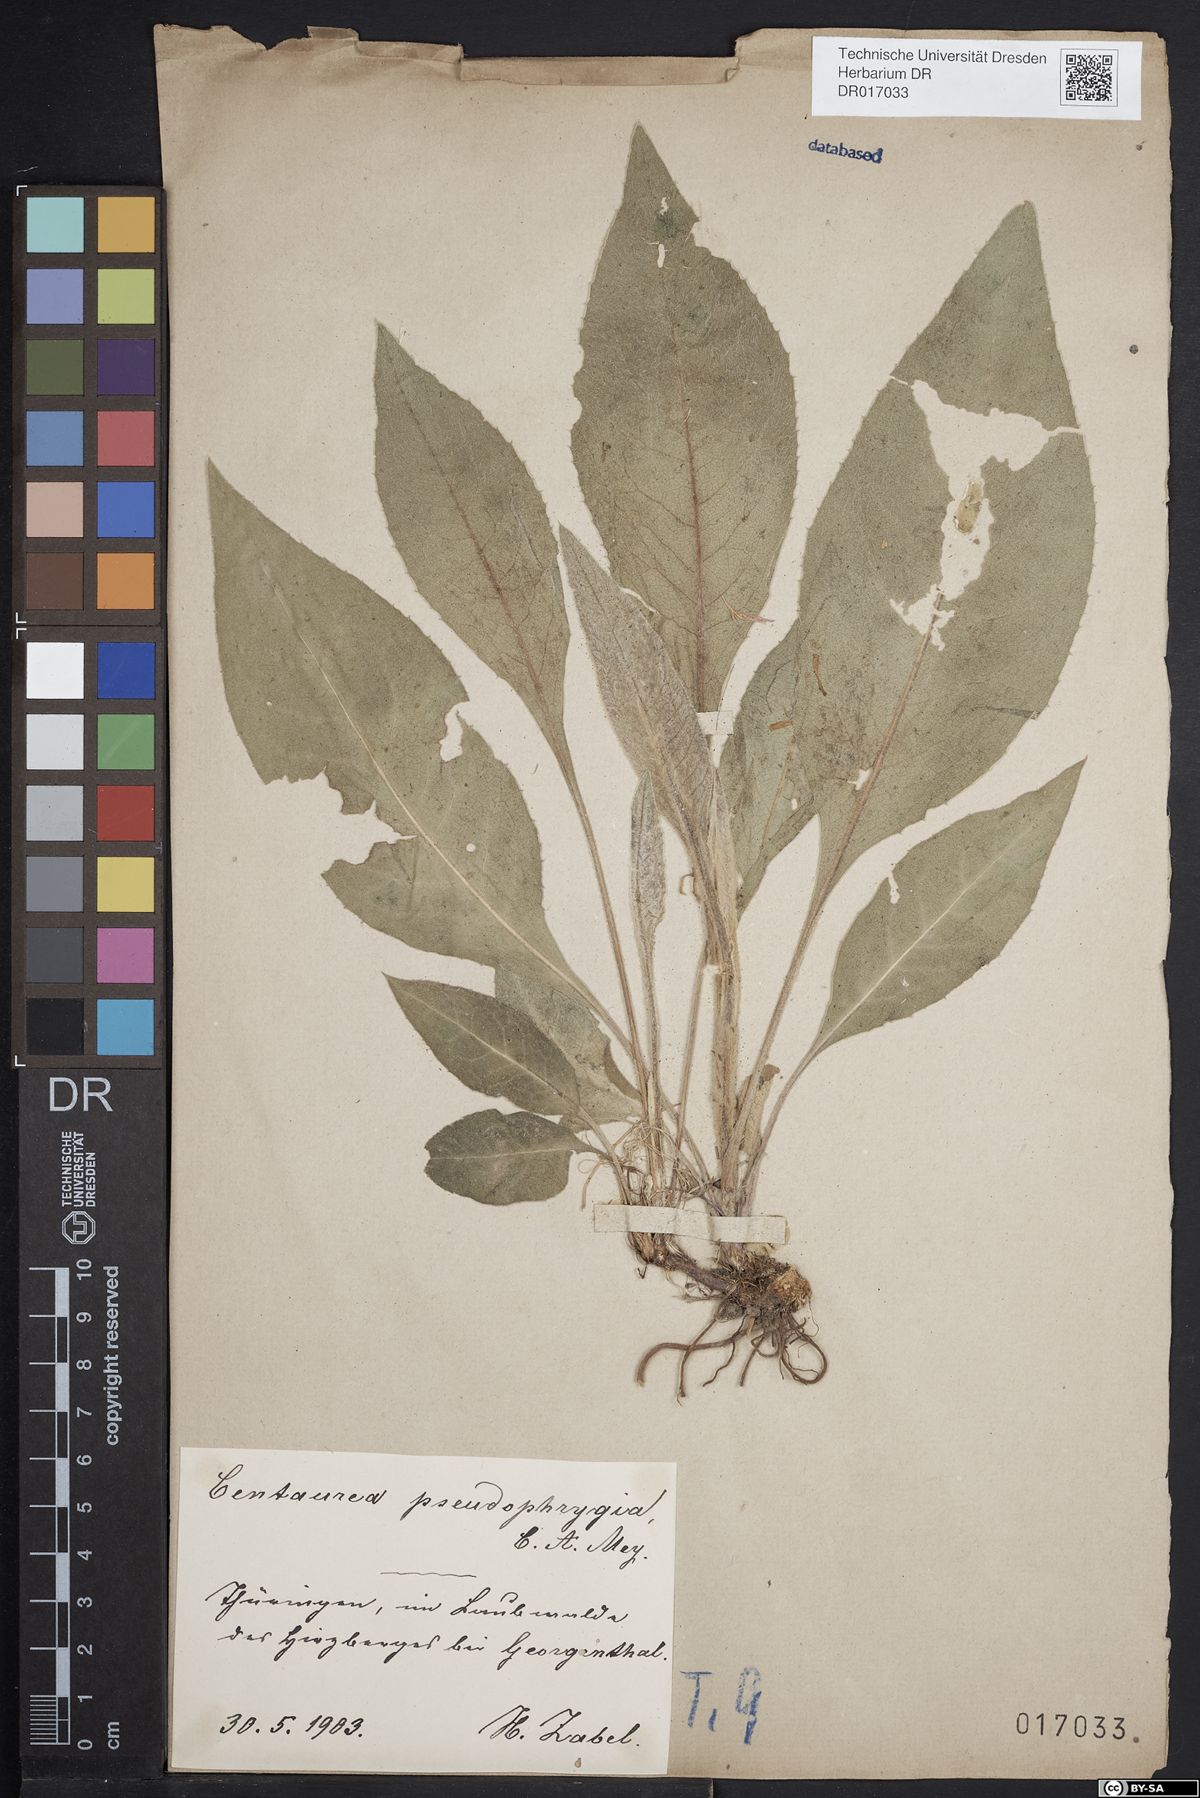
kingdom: Plantae
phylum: Tracheophyta
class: Magnoliopsida
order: Asterales
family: Asteraceae
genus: Centaurea
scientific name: Centaurea pseudophrygia
